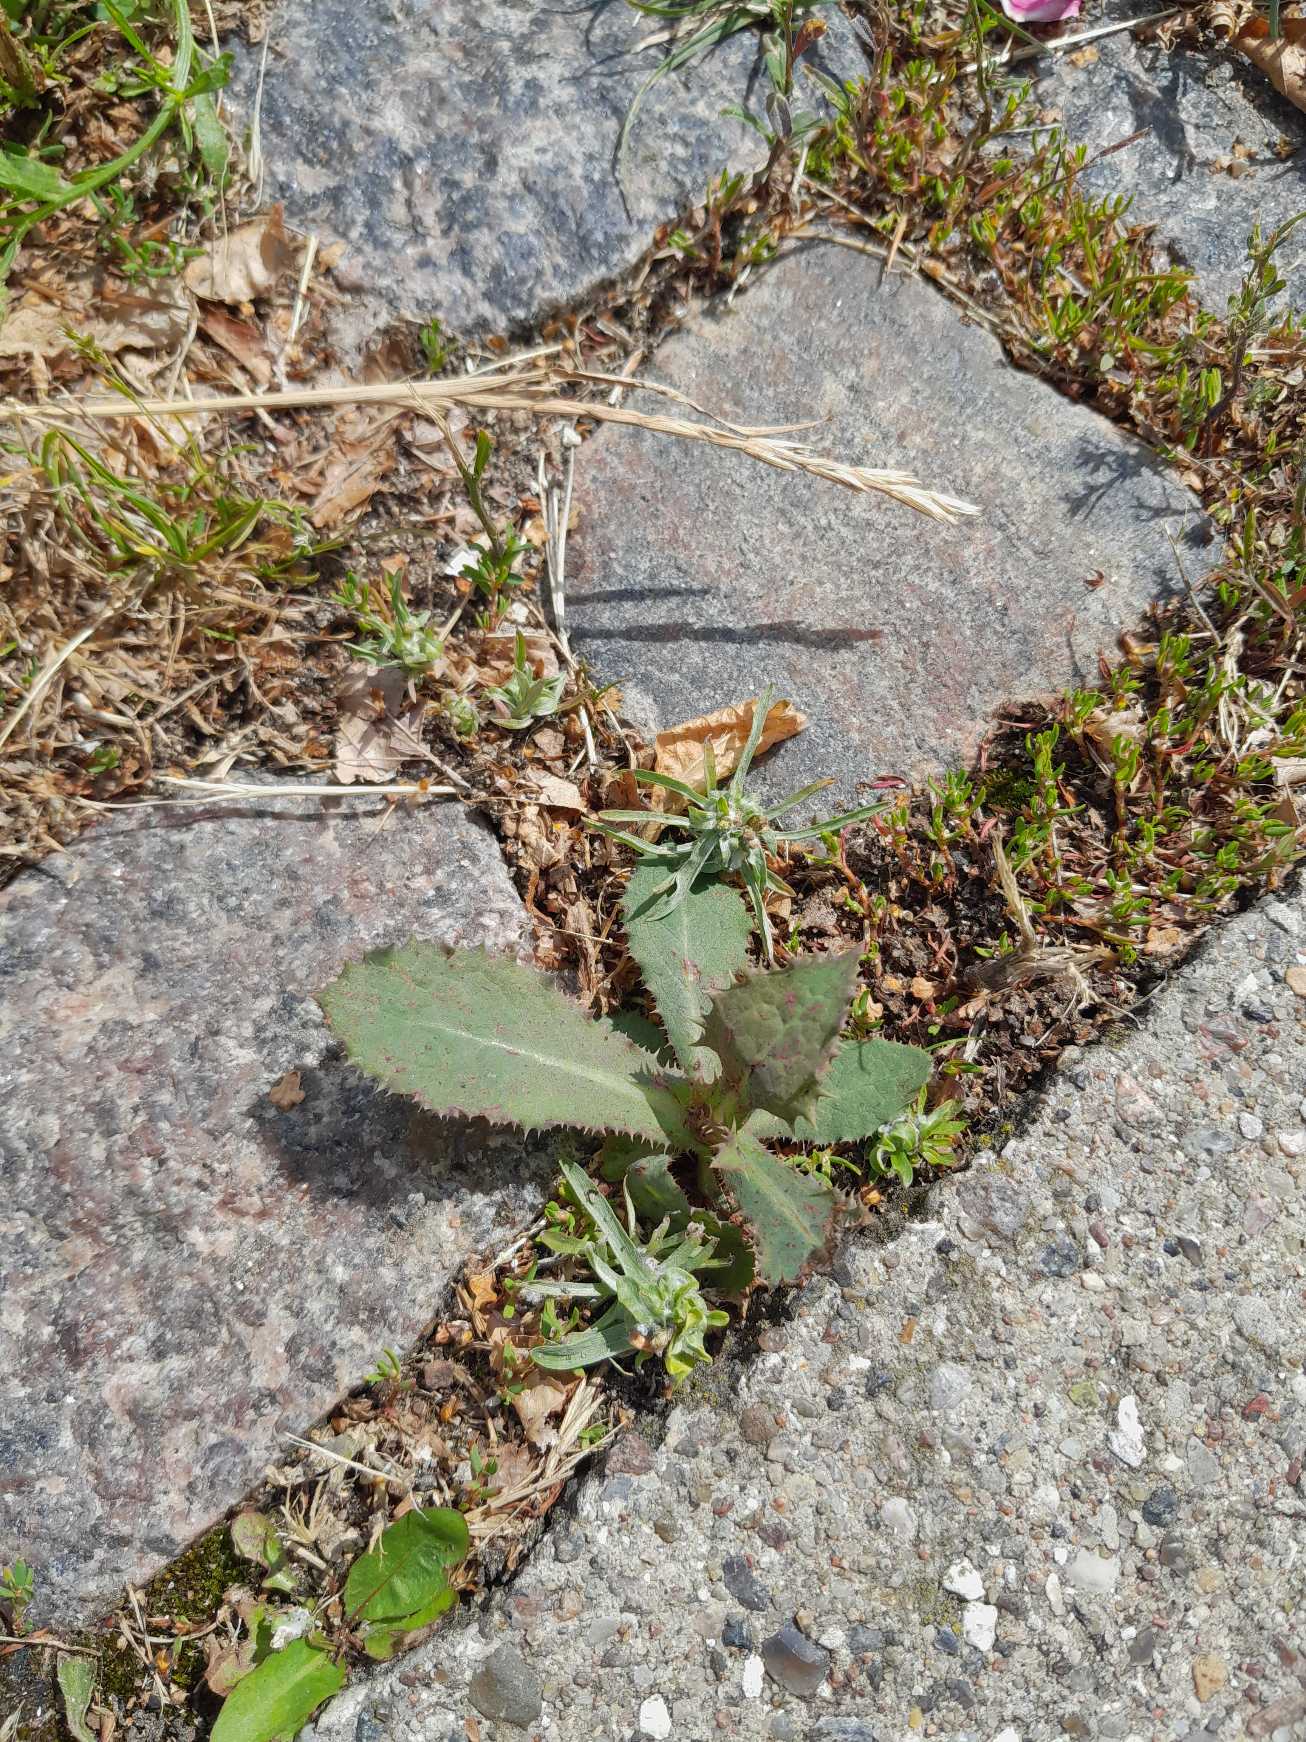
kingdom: Plantae
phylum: Tracheophyta
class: Magnoliopsida
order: Asterales
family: Asteraceae
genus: Sonchus
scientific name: Sonchus asper
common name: Ru svinemælk
